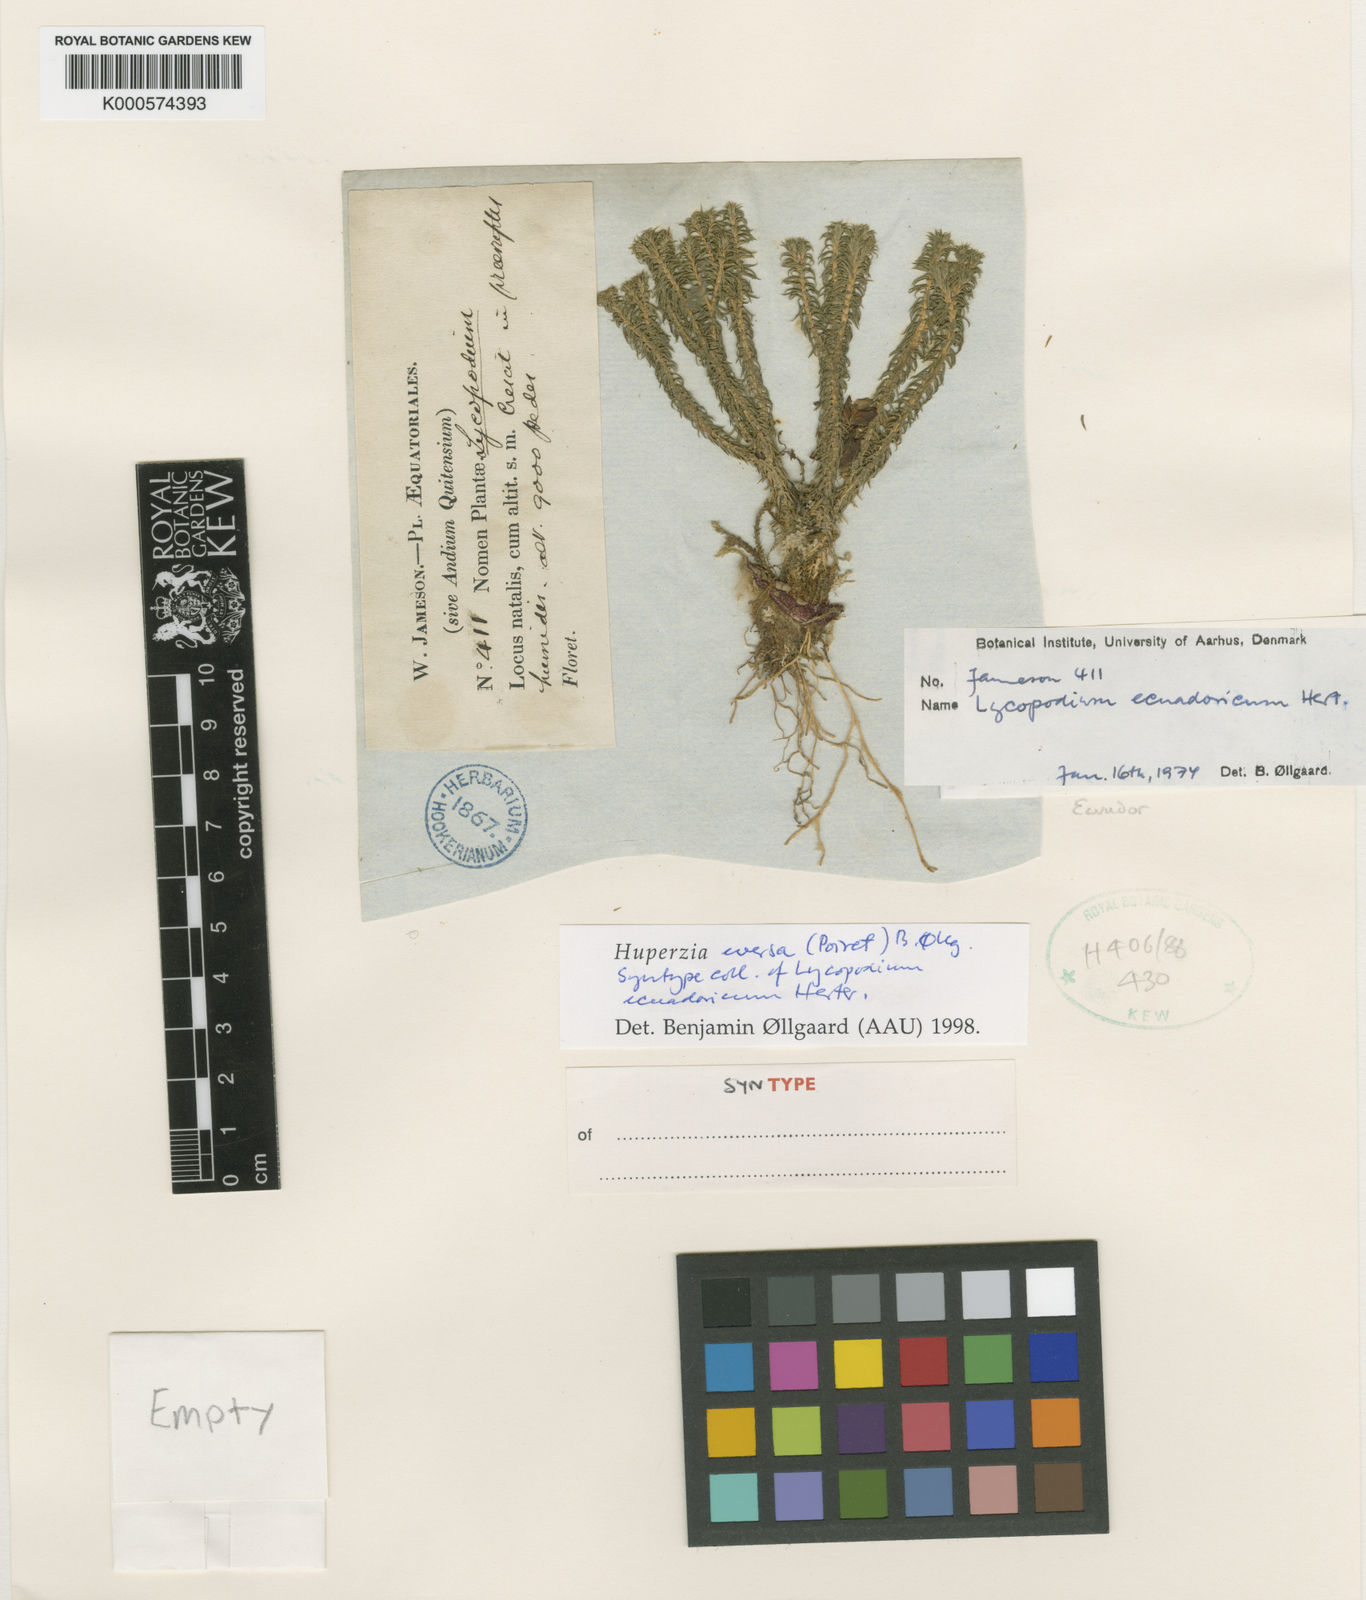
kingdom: Plantae
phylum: Tracheophyta
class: Lycopodiopsida
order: Lycopodiales
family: Lycopodiaceae
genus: Phlegmariurus
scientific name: Phlegmariurus eversus
